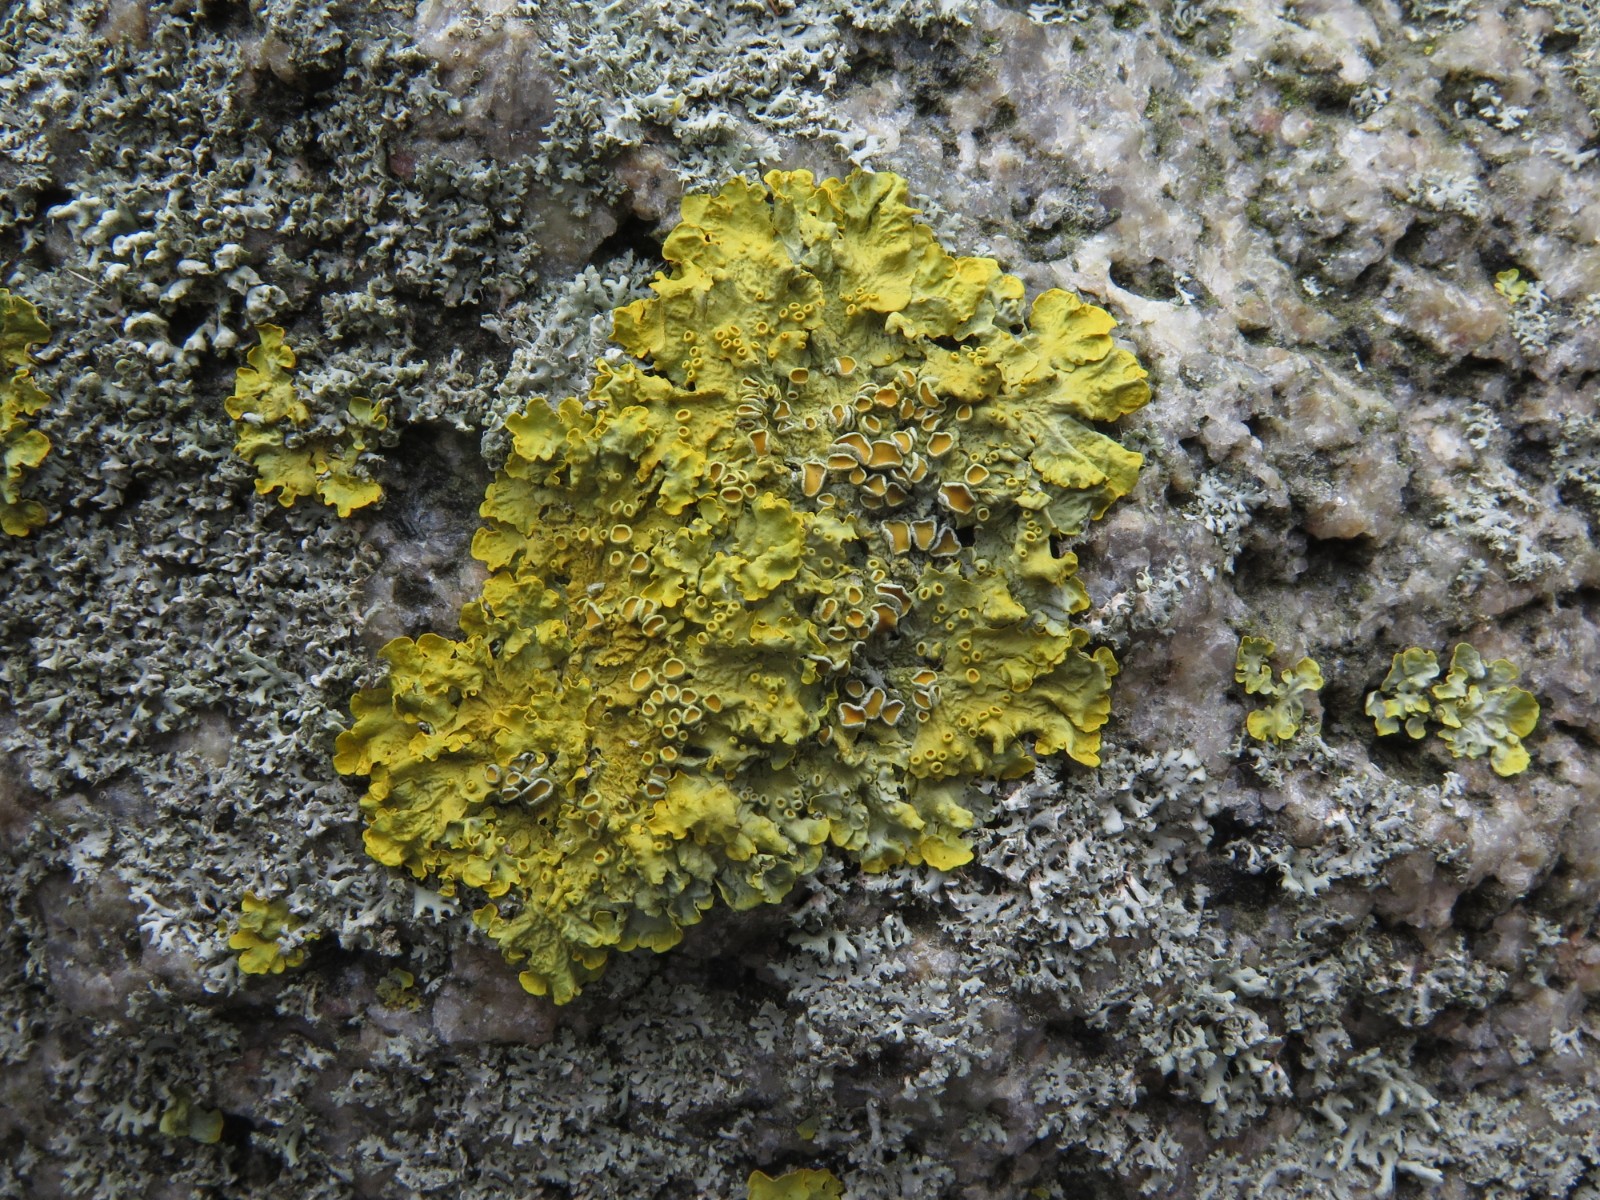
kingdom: Fungi
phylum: Ascomycota
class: Lecanoromycetes
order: Teloschistales
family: Teloschistaceae
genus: Xanthoria
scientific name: Xanthoria parietina
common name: almindelig væggelav
